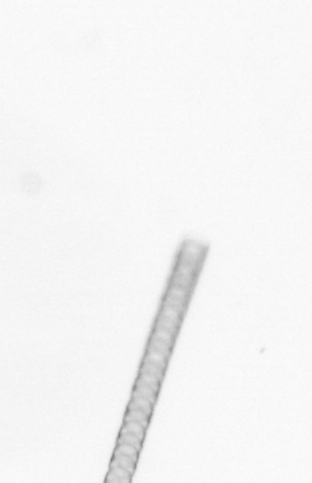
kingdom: Chromista
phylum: Ochrophyta
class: Bacillariophyceae
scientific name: Bacillariophyceae
